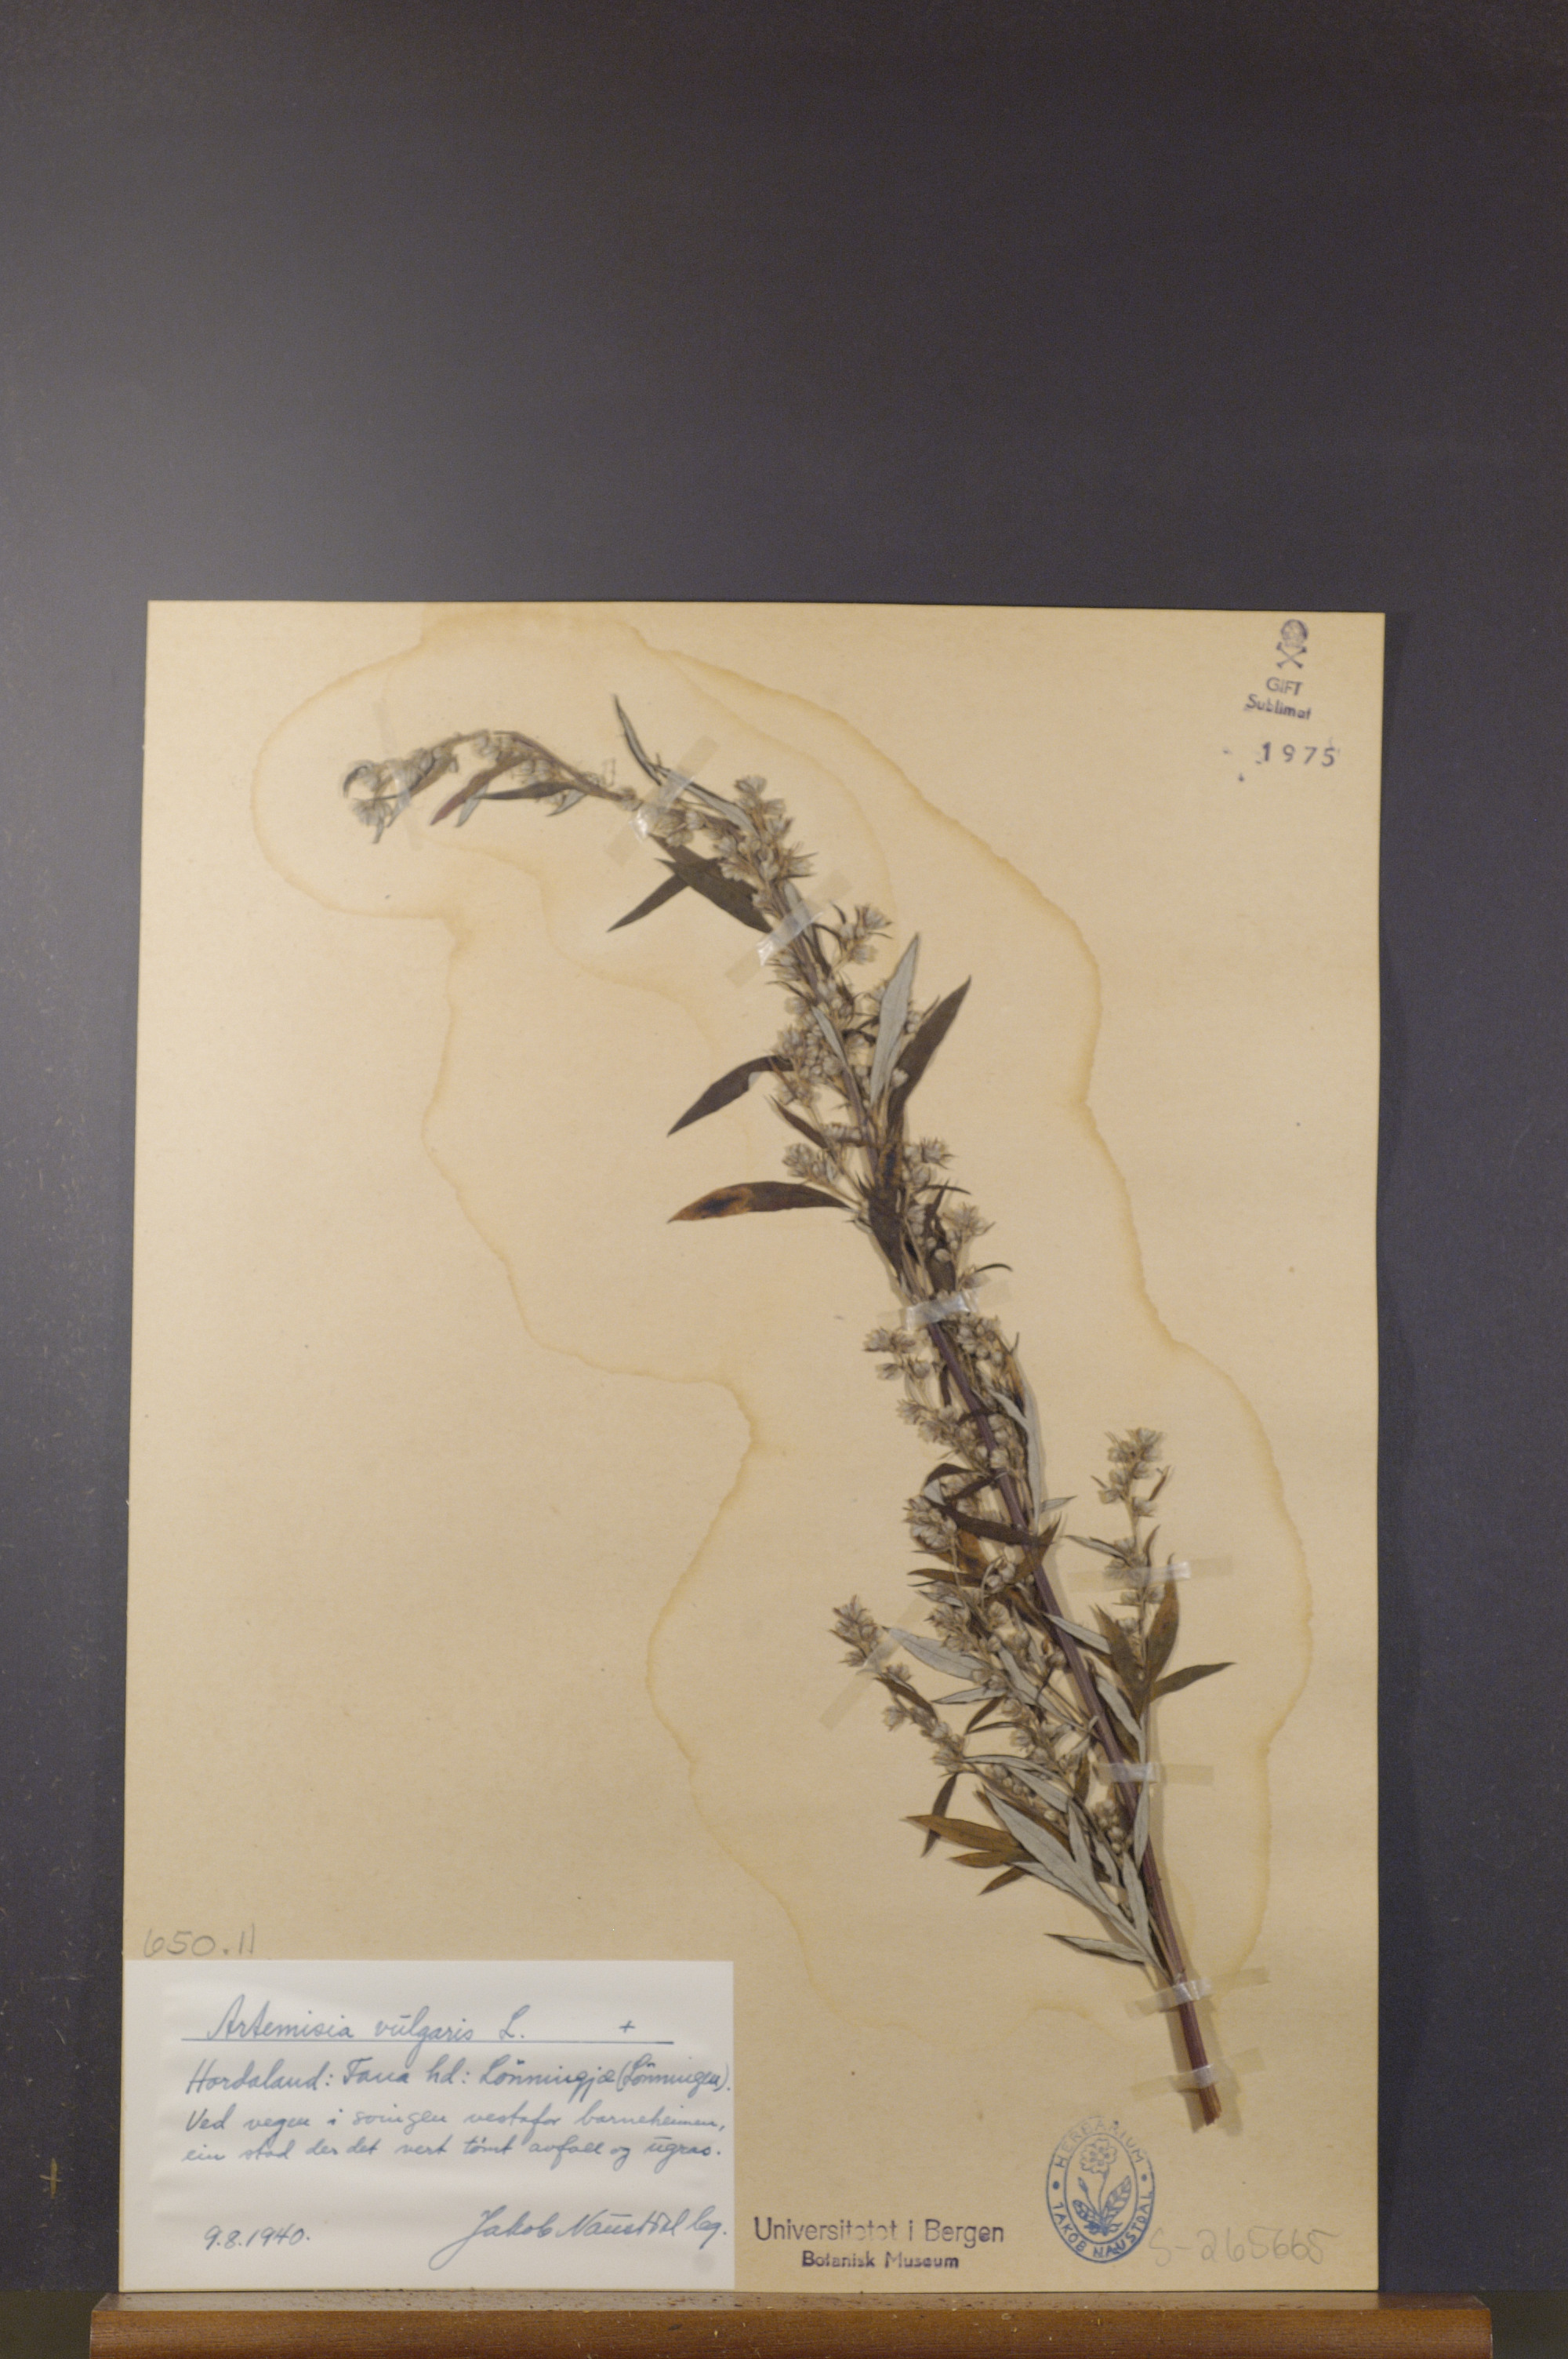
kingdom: Plantae
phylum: Tracheophyta
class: Magnoliopsida
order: Asterales
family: Asteraceae
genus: Artemisia
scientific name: Artemisia vulgaris
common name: Mugwort
